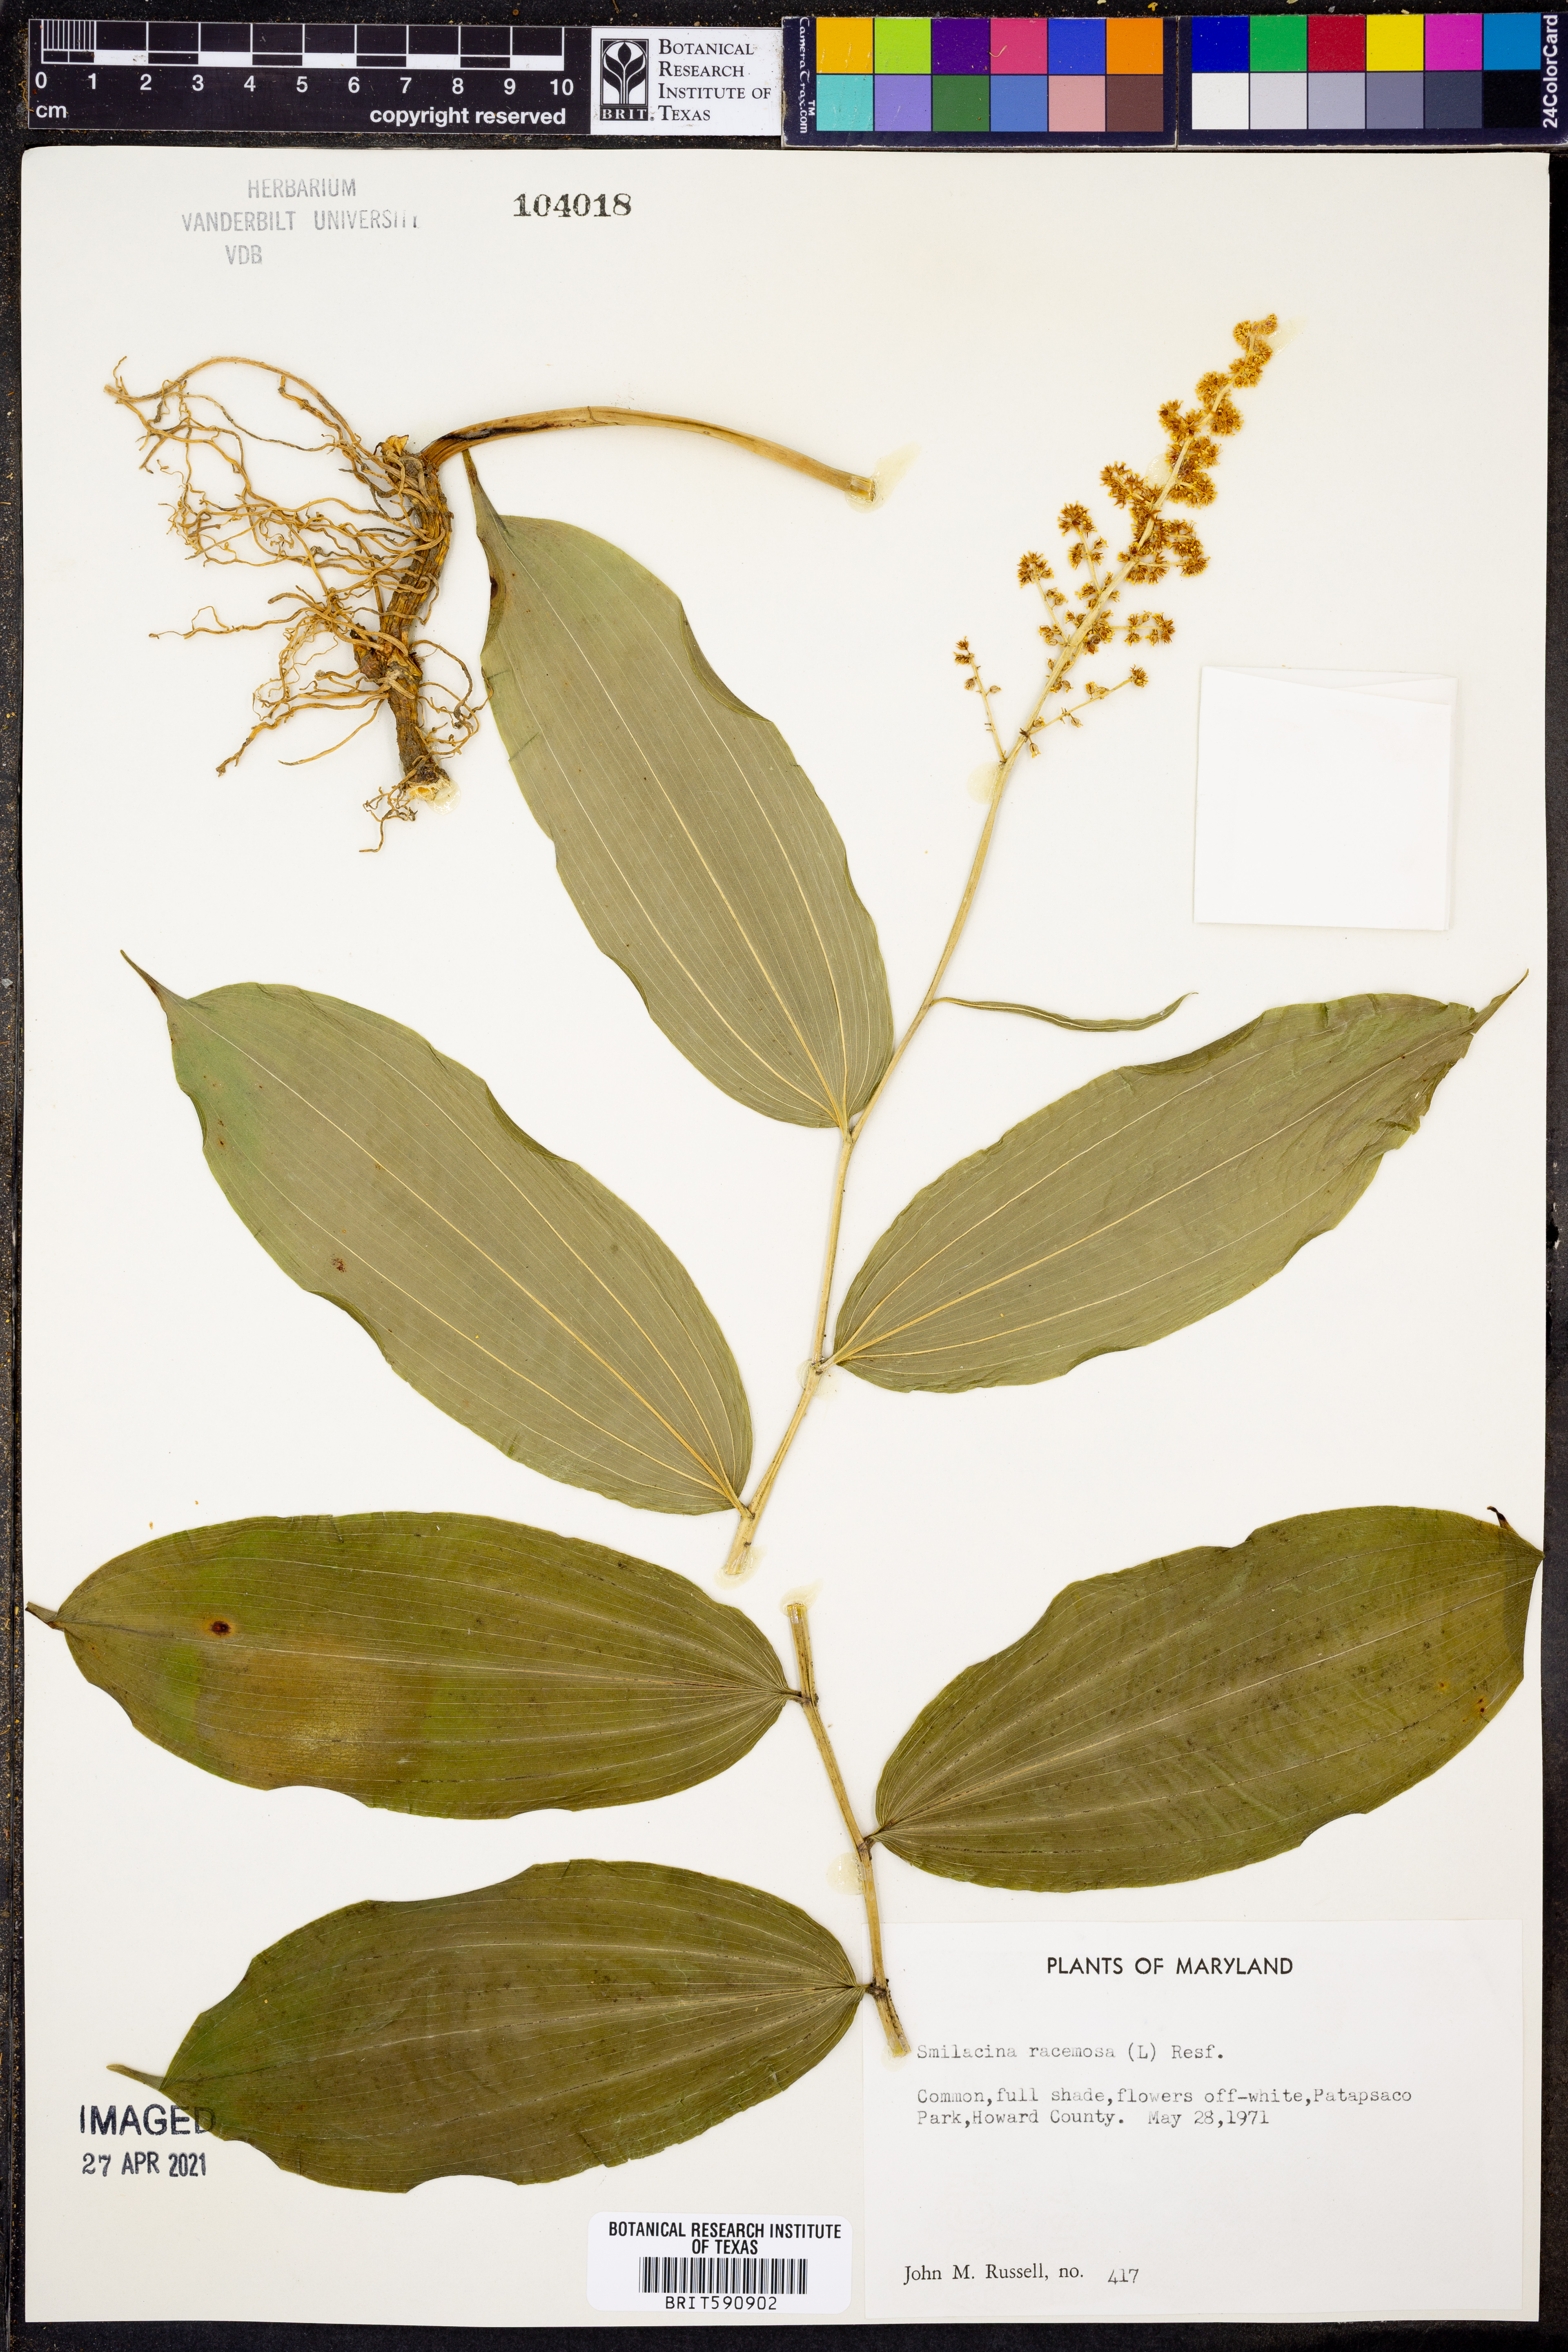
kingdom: Plantae
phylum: Tracheophyta
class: Liliopsida
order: Asparagales
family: Asparagaceae
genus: Maianthemum
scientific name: Maianthemum racemosum
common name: False spikenard
